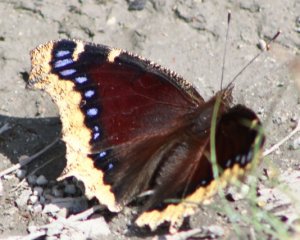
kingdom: Animalia
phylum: Arthropoda
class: Insecta
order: Lepidoptera
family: Nymphalidae
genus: Nymphalis
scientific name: Nymphalis antiopa
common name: Mourning Cloak
